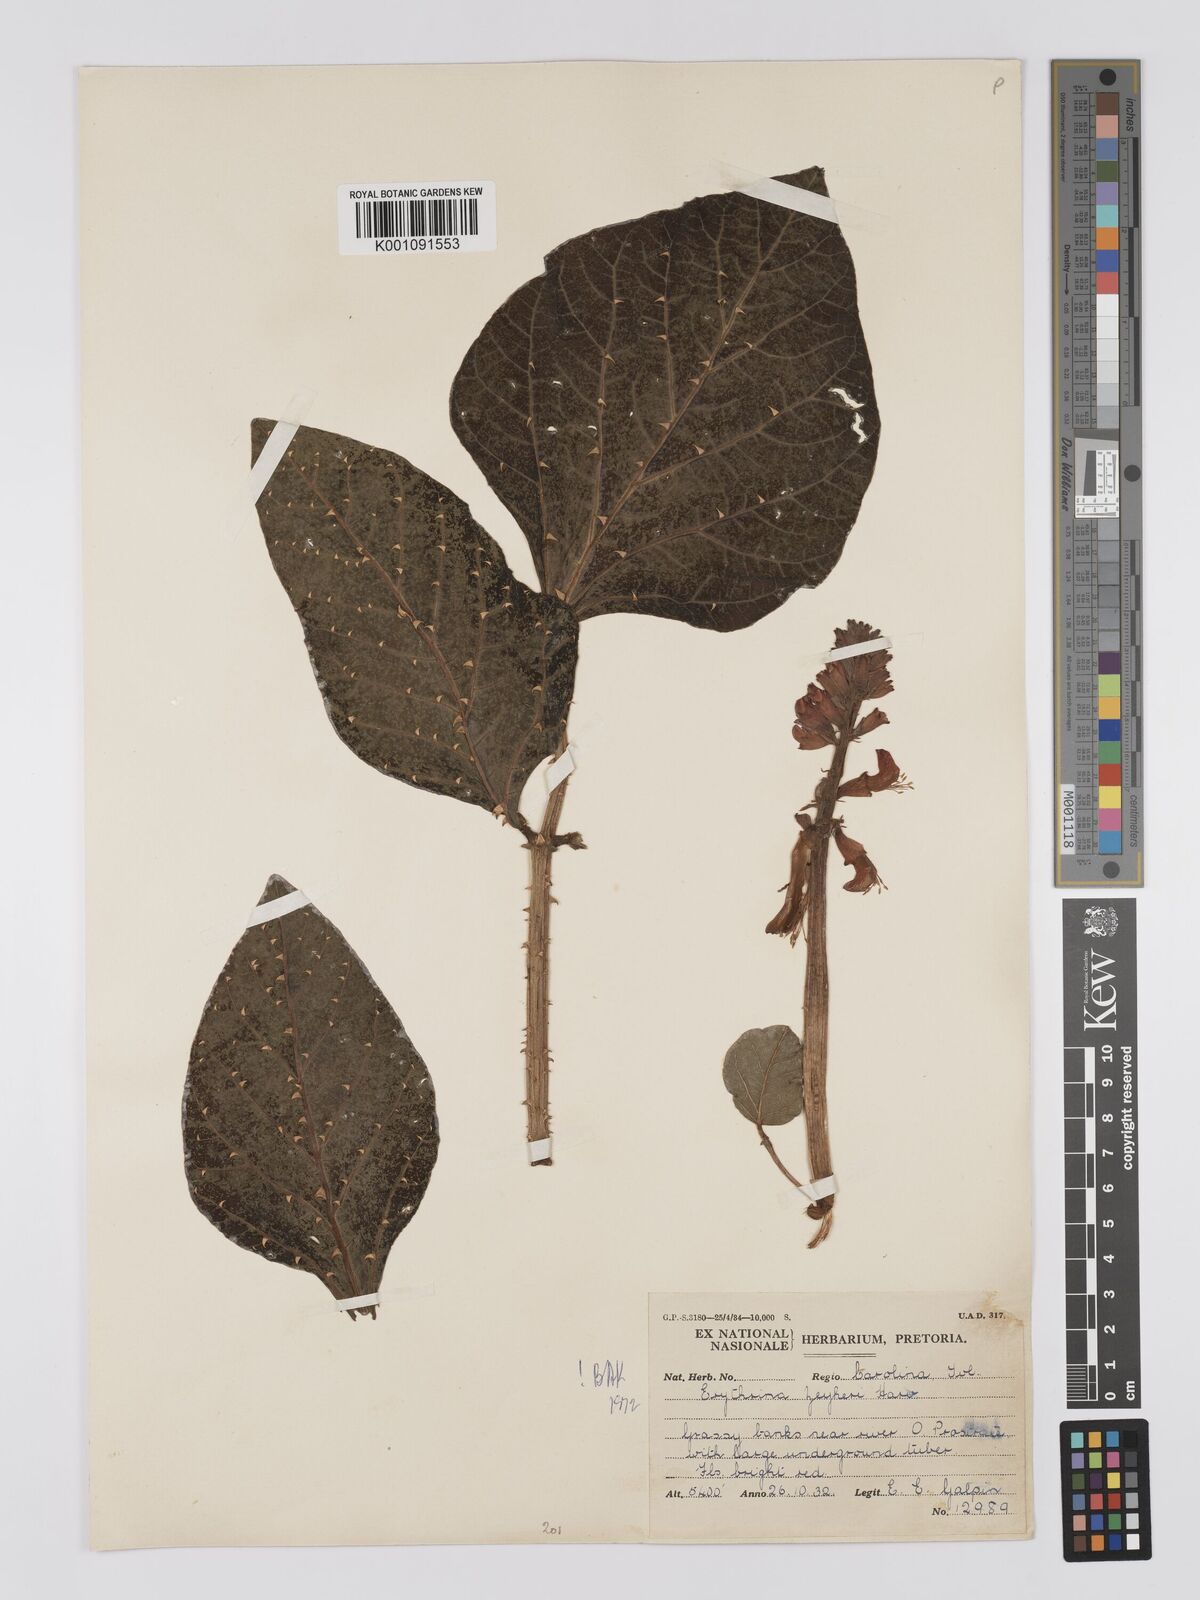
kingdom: Plantae
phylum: Tracheophyta
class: Magnoliopsida
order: Fabales
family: Fabaceae
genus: Erythrina
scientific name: Erythrina zeyheri
